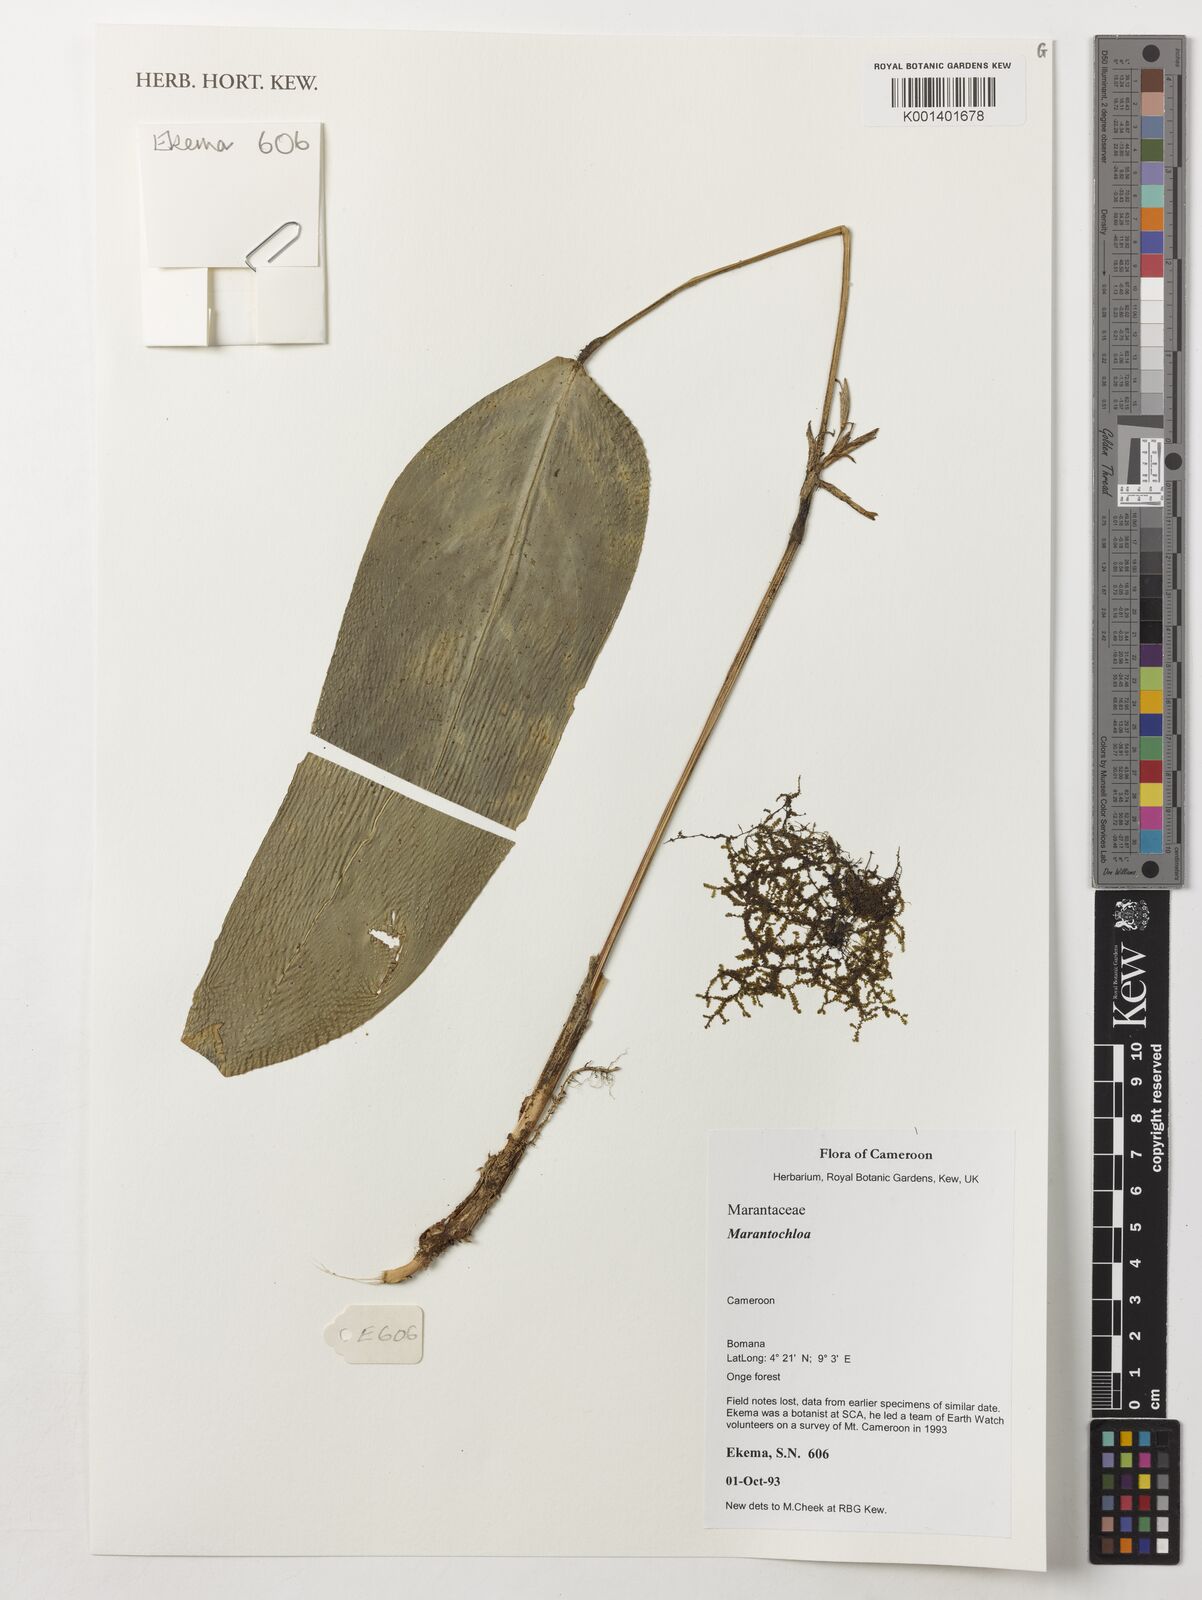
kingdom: Plantae
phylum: Tracheophyta
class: Liliopsida
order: Zingiberales
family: Marantaceae
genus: Marantochloa
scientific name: Marantochloa
